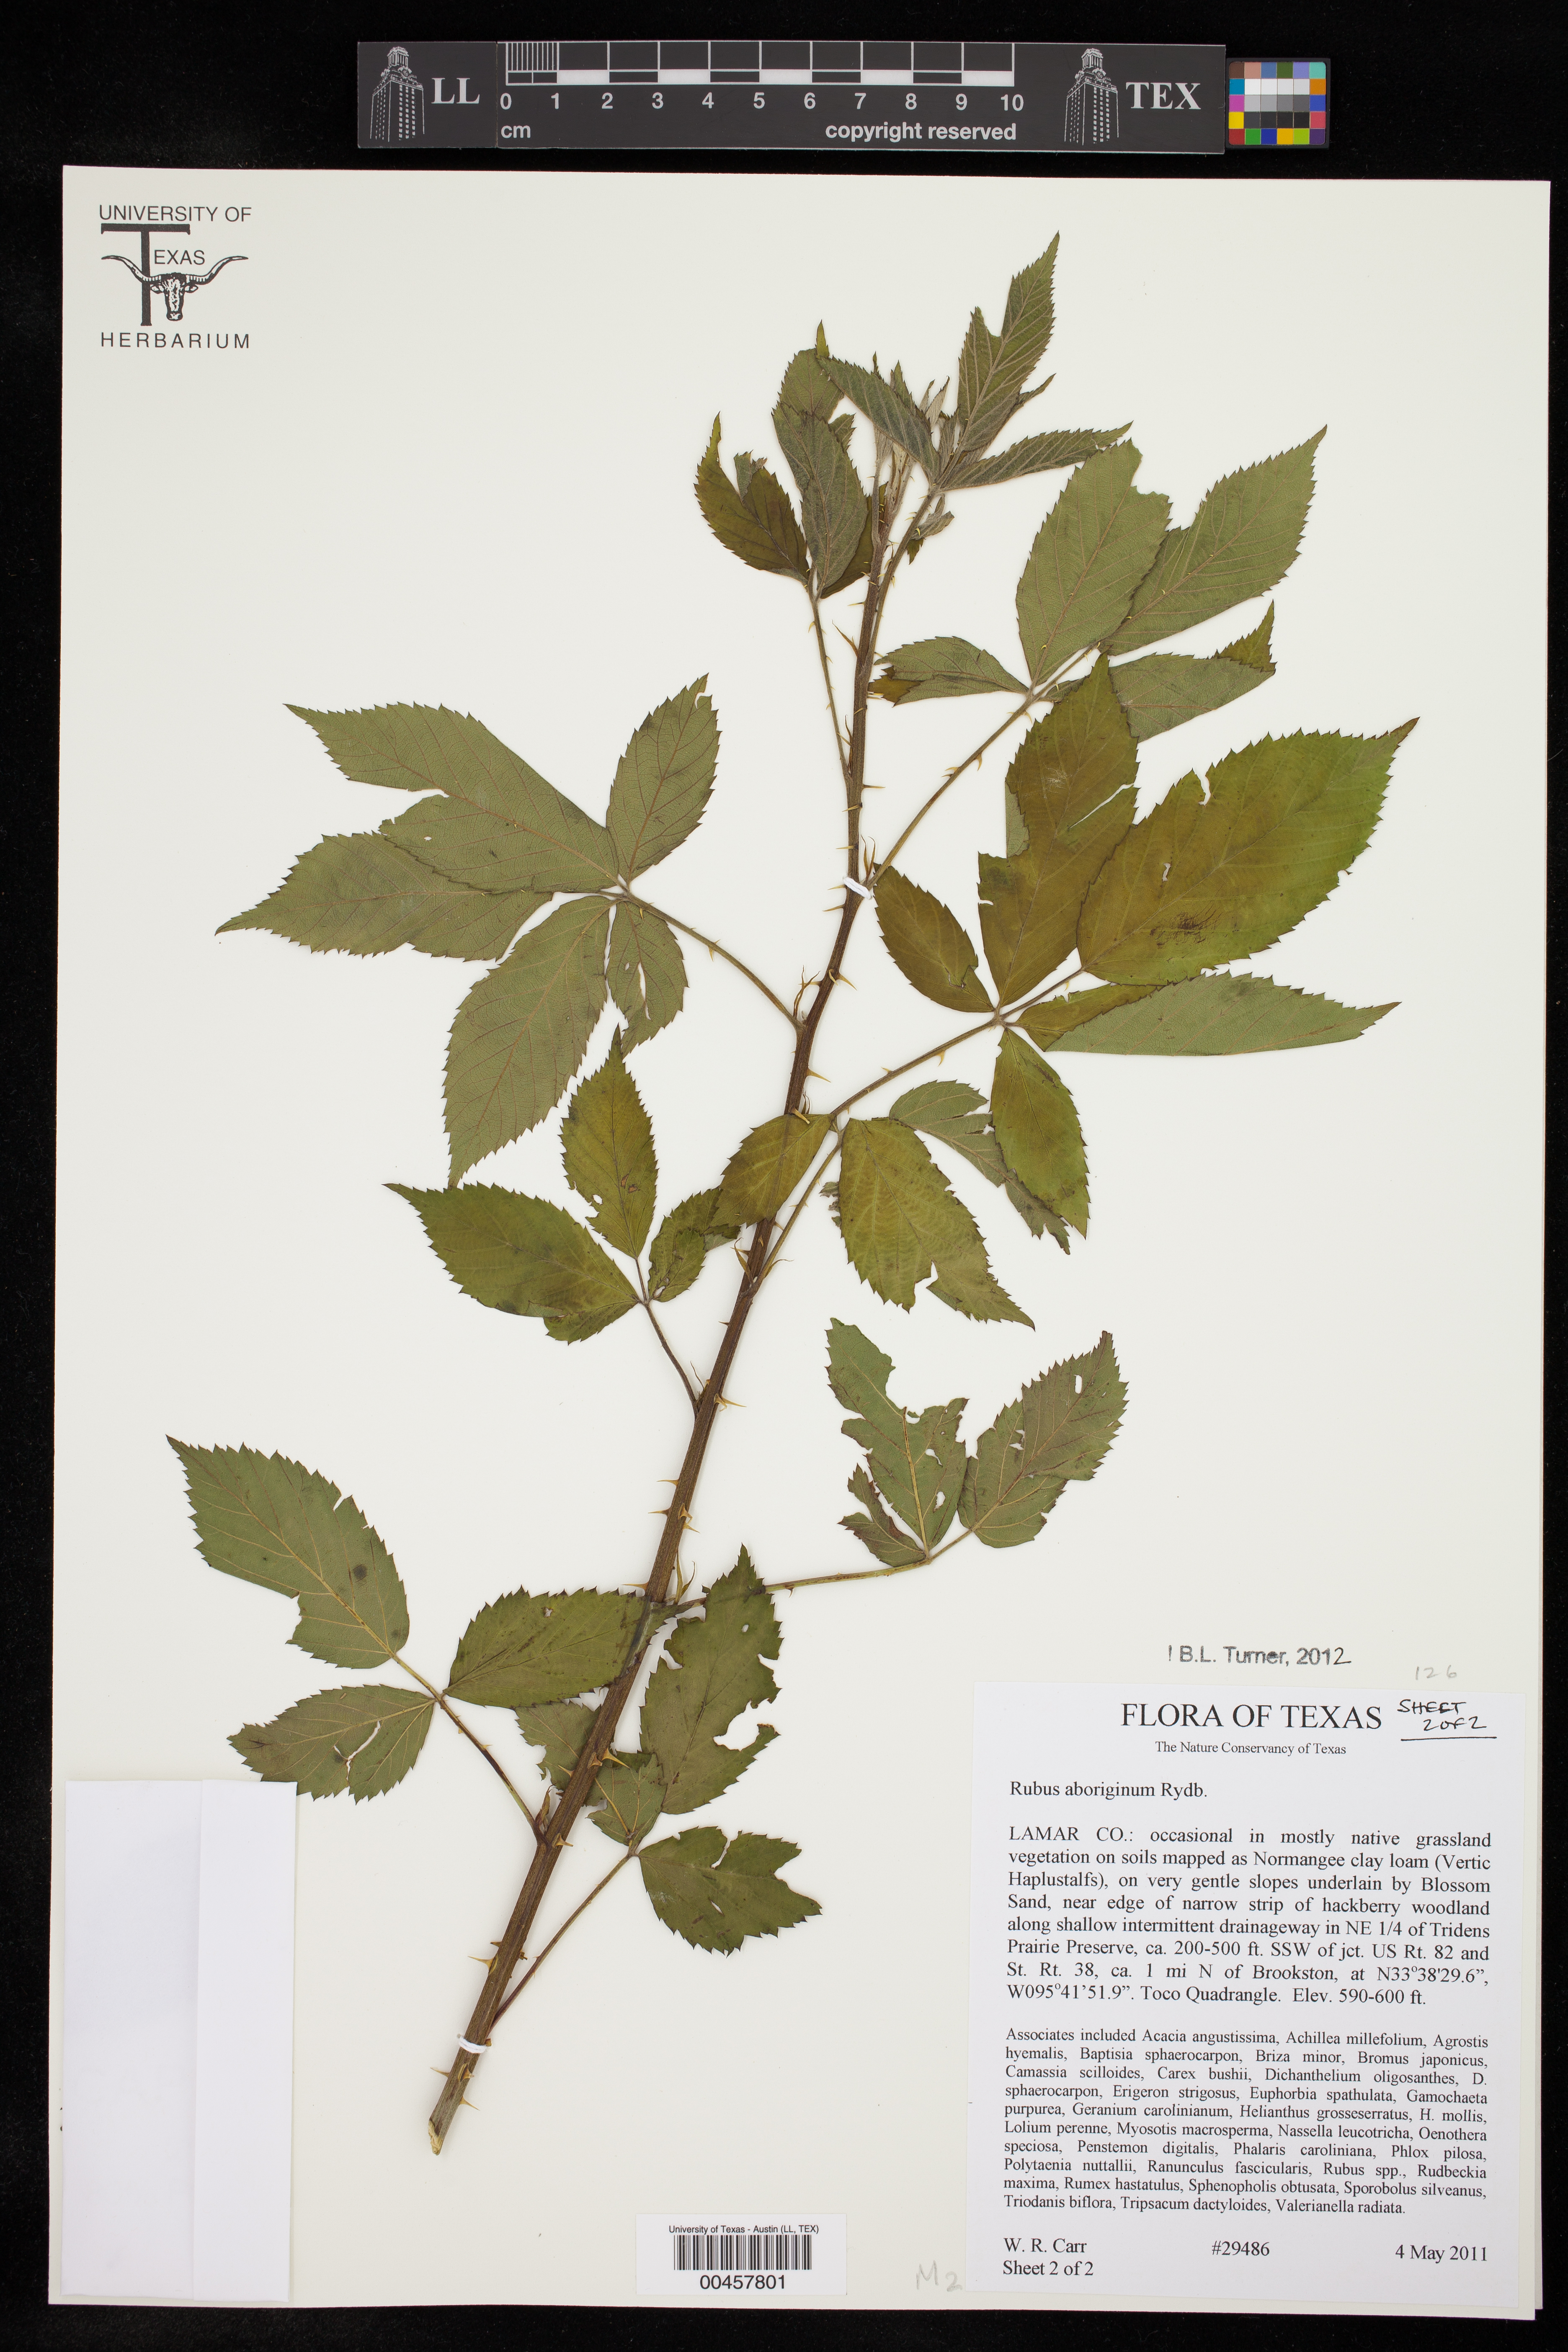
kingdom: Plantae
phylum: Tracheophyta
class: Magnoliopsida
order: Rosales
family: Rosaceae
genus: Rubus
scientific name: Rubus aboriginum
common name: Mayes dewberry
